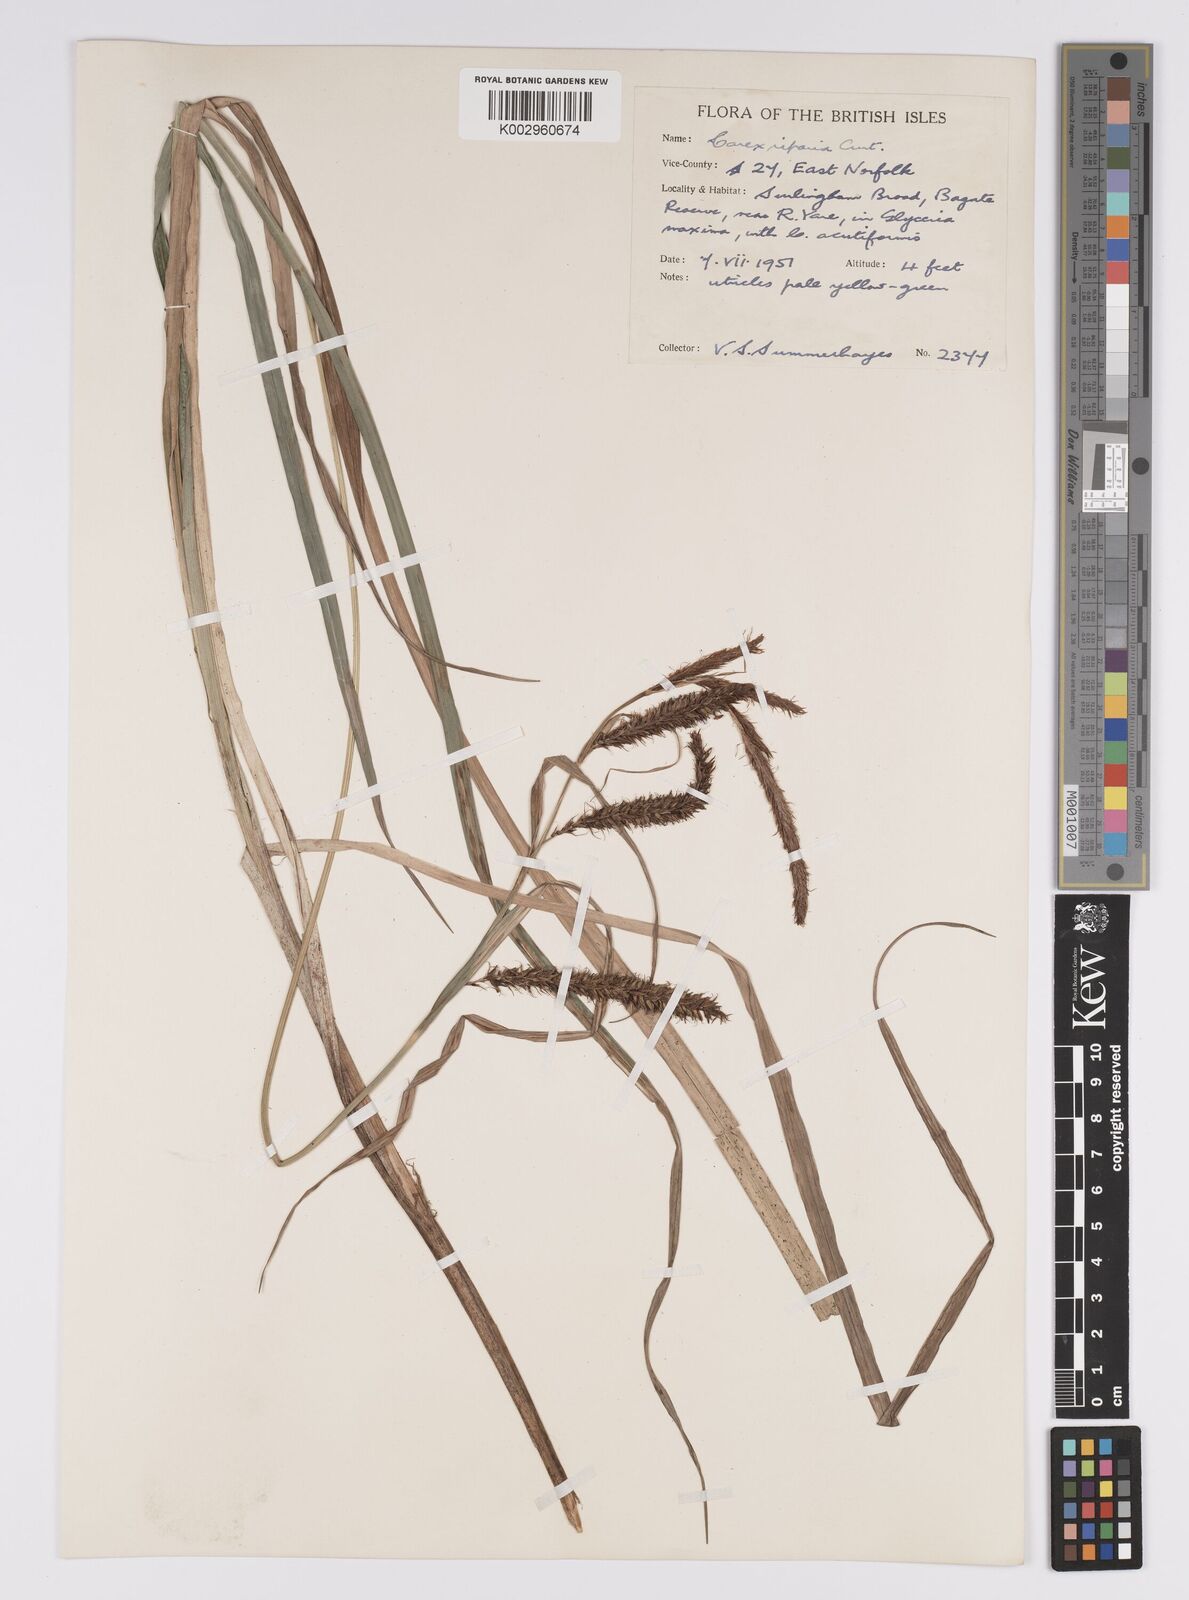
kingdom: Plantae
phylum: Tracheophyta
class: Liliopsida
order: Poales
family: Cyperaceae
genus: Carex
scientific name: Carex acutiformis
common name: Lesser pond-sedge
